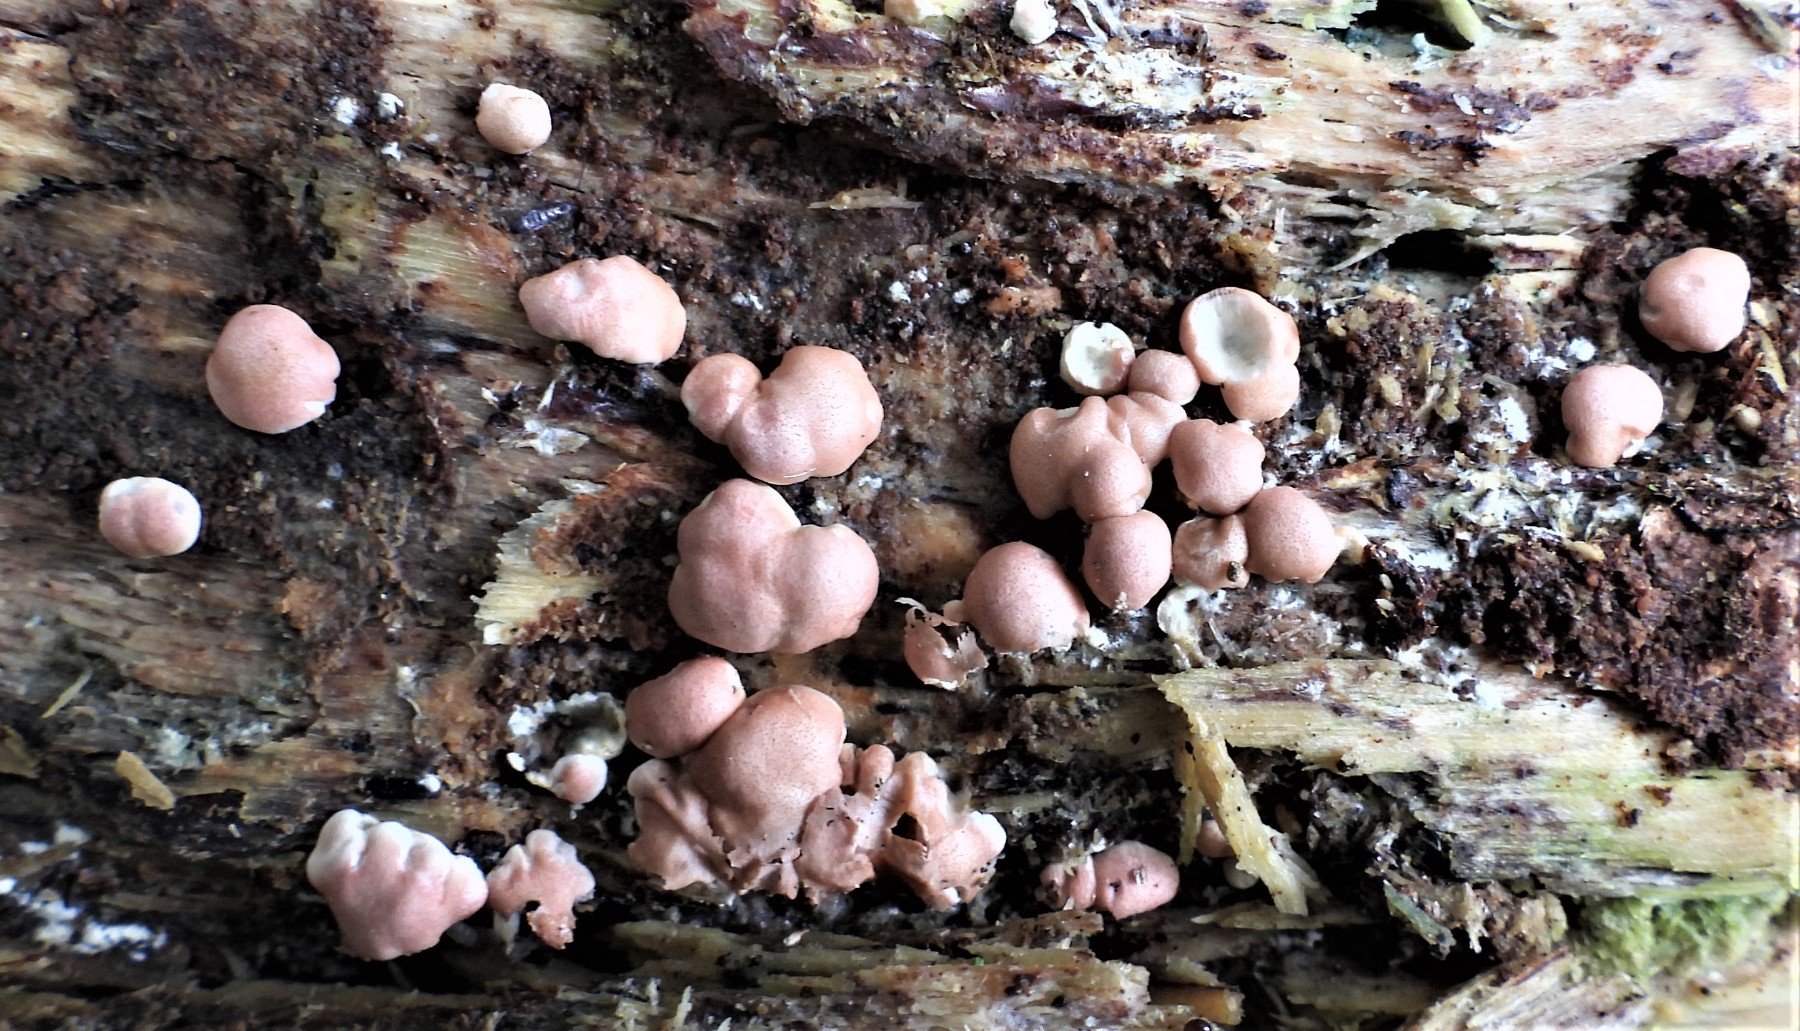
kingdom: Fungi
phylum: Ascomycota
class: Sordariomycetes
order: Hypocreales
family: Hypocreaceae
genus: Trichoderma
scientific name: Trichoderma europaeum
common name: rosabrun kødkerne
